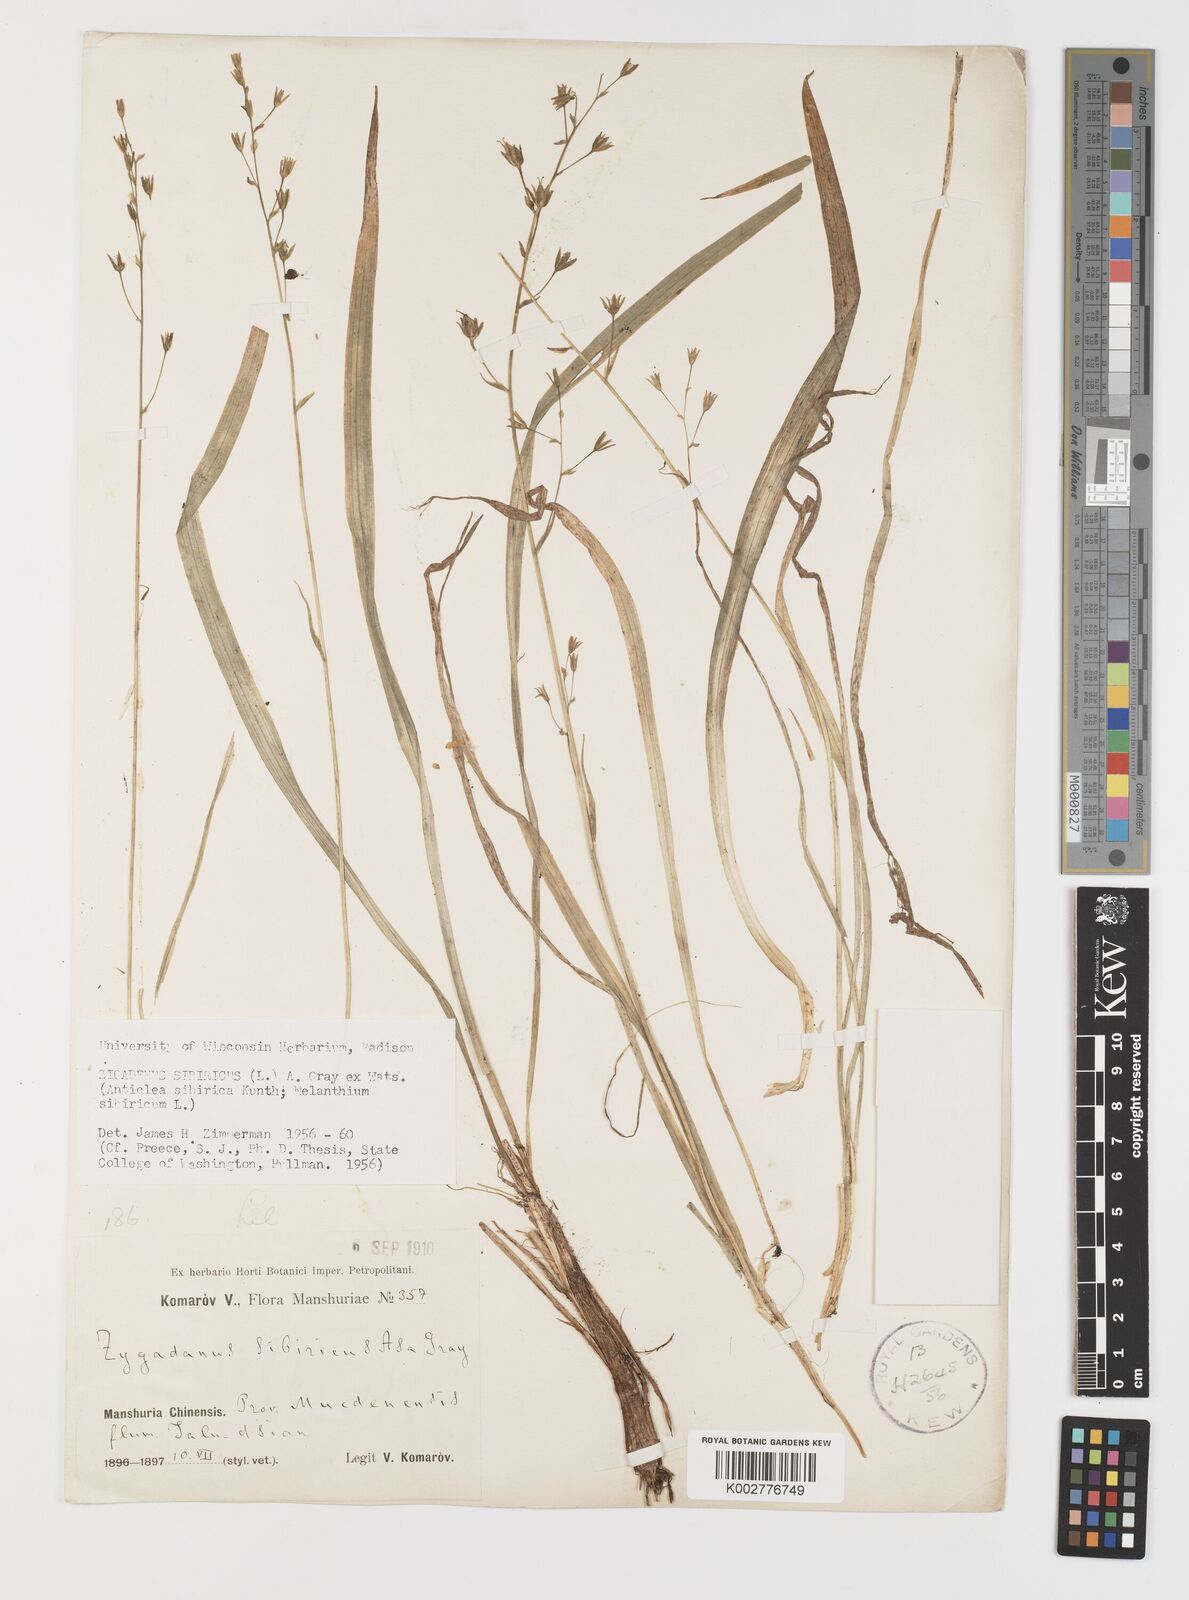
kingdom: Plantae
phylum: Tracheophyta
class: Liliopsida
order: Liliales
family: Melanthiaceae
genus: Anticlea
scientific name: Anticlea sibirica
